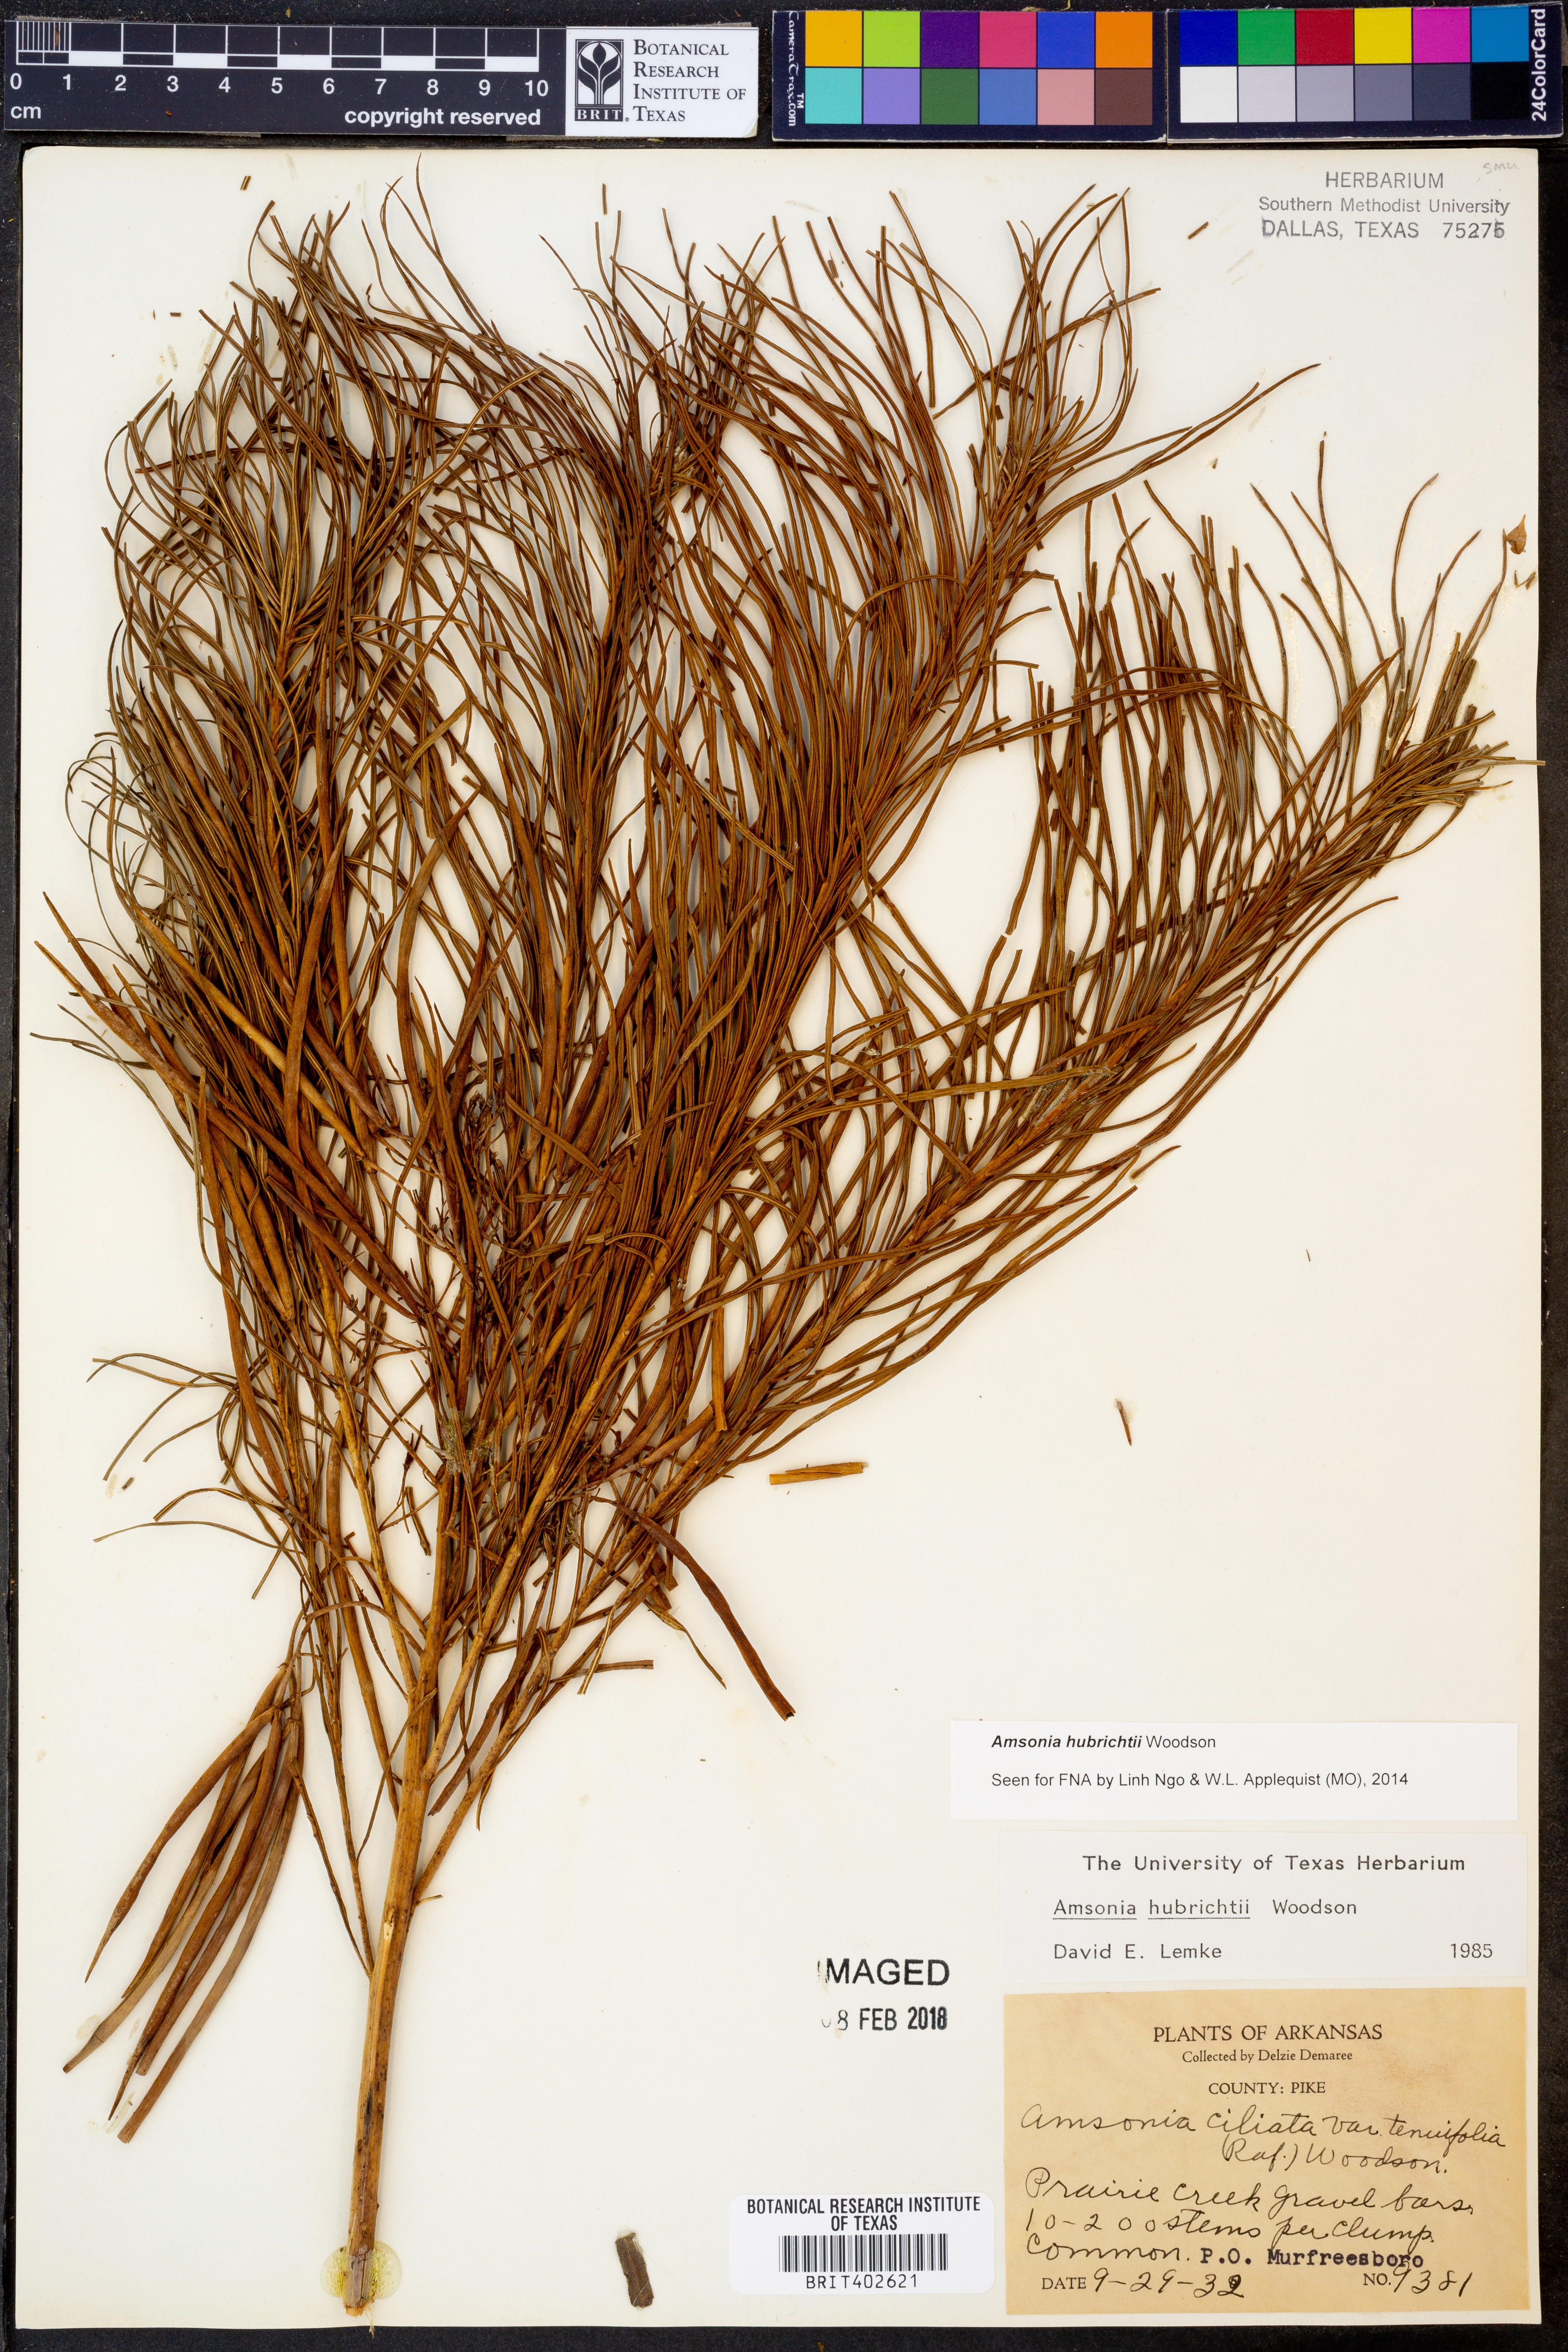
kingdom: Plantae
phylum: Tracheophyta
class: Magnoliopsida
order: Gentianales
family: Apocynaceae
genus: Amsonia
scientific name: Amsonia hubrichtii
